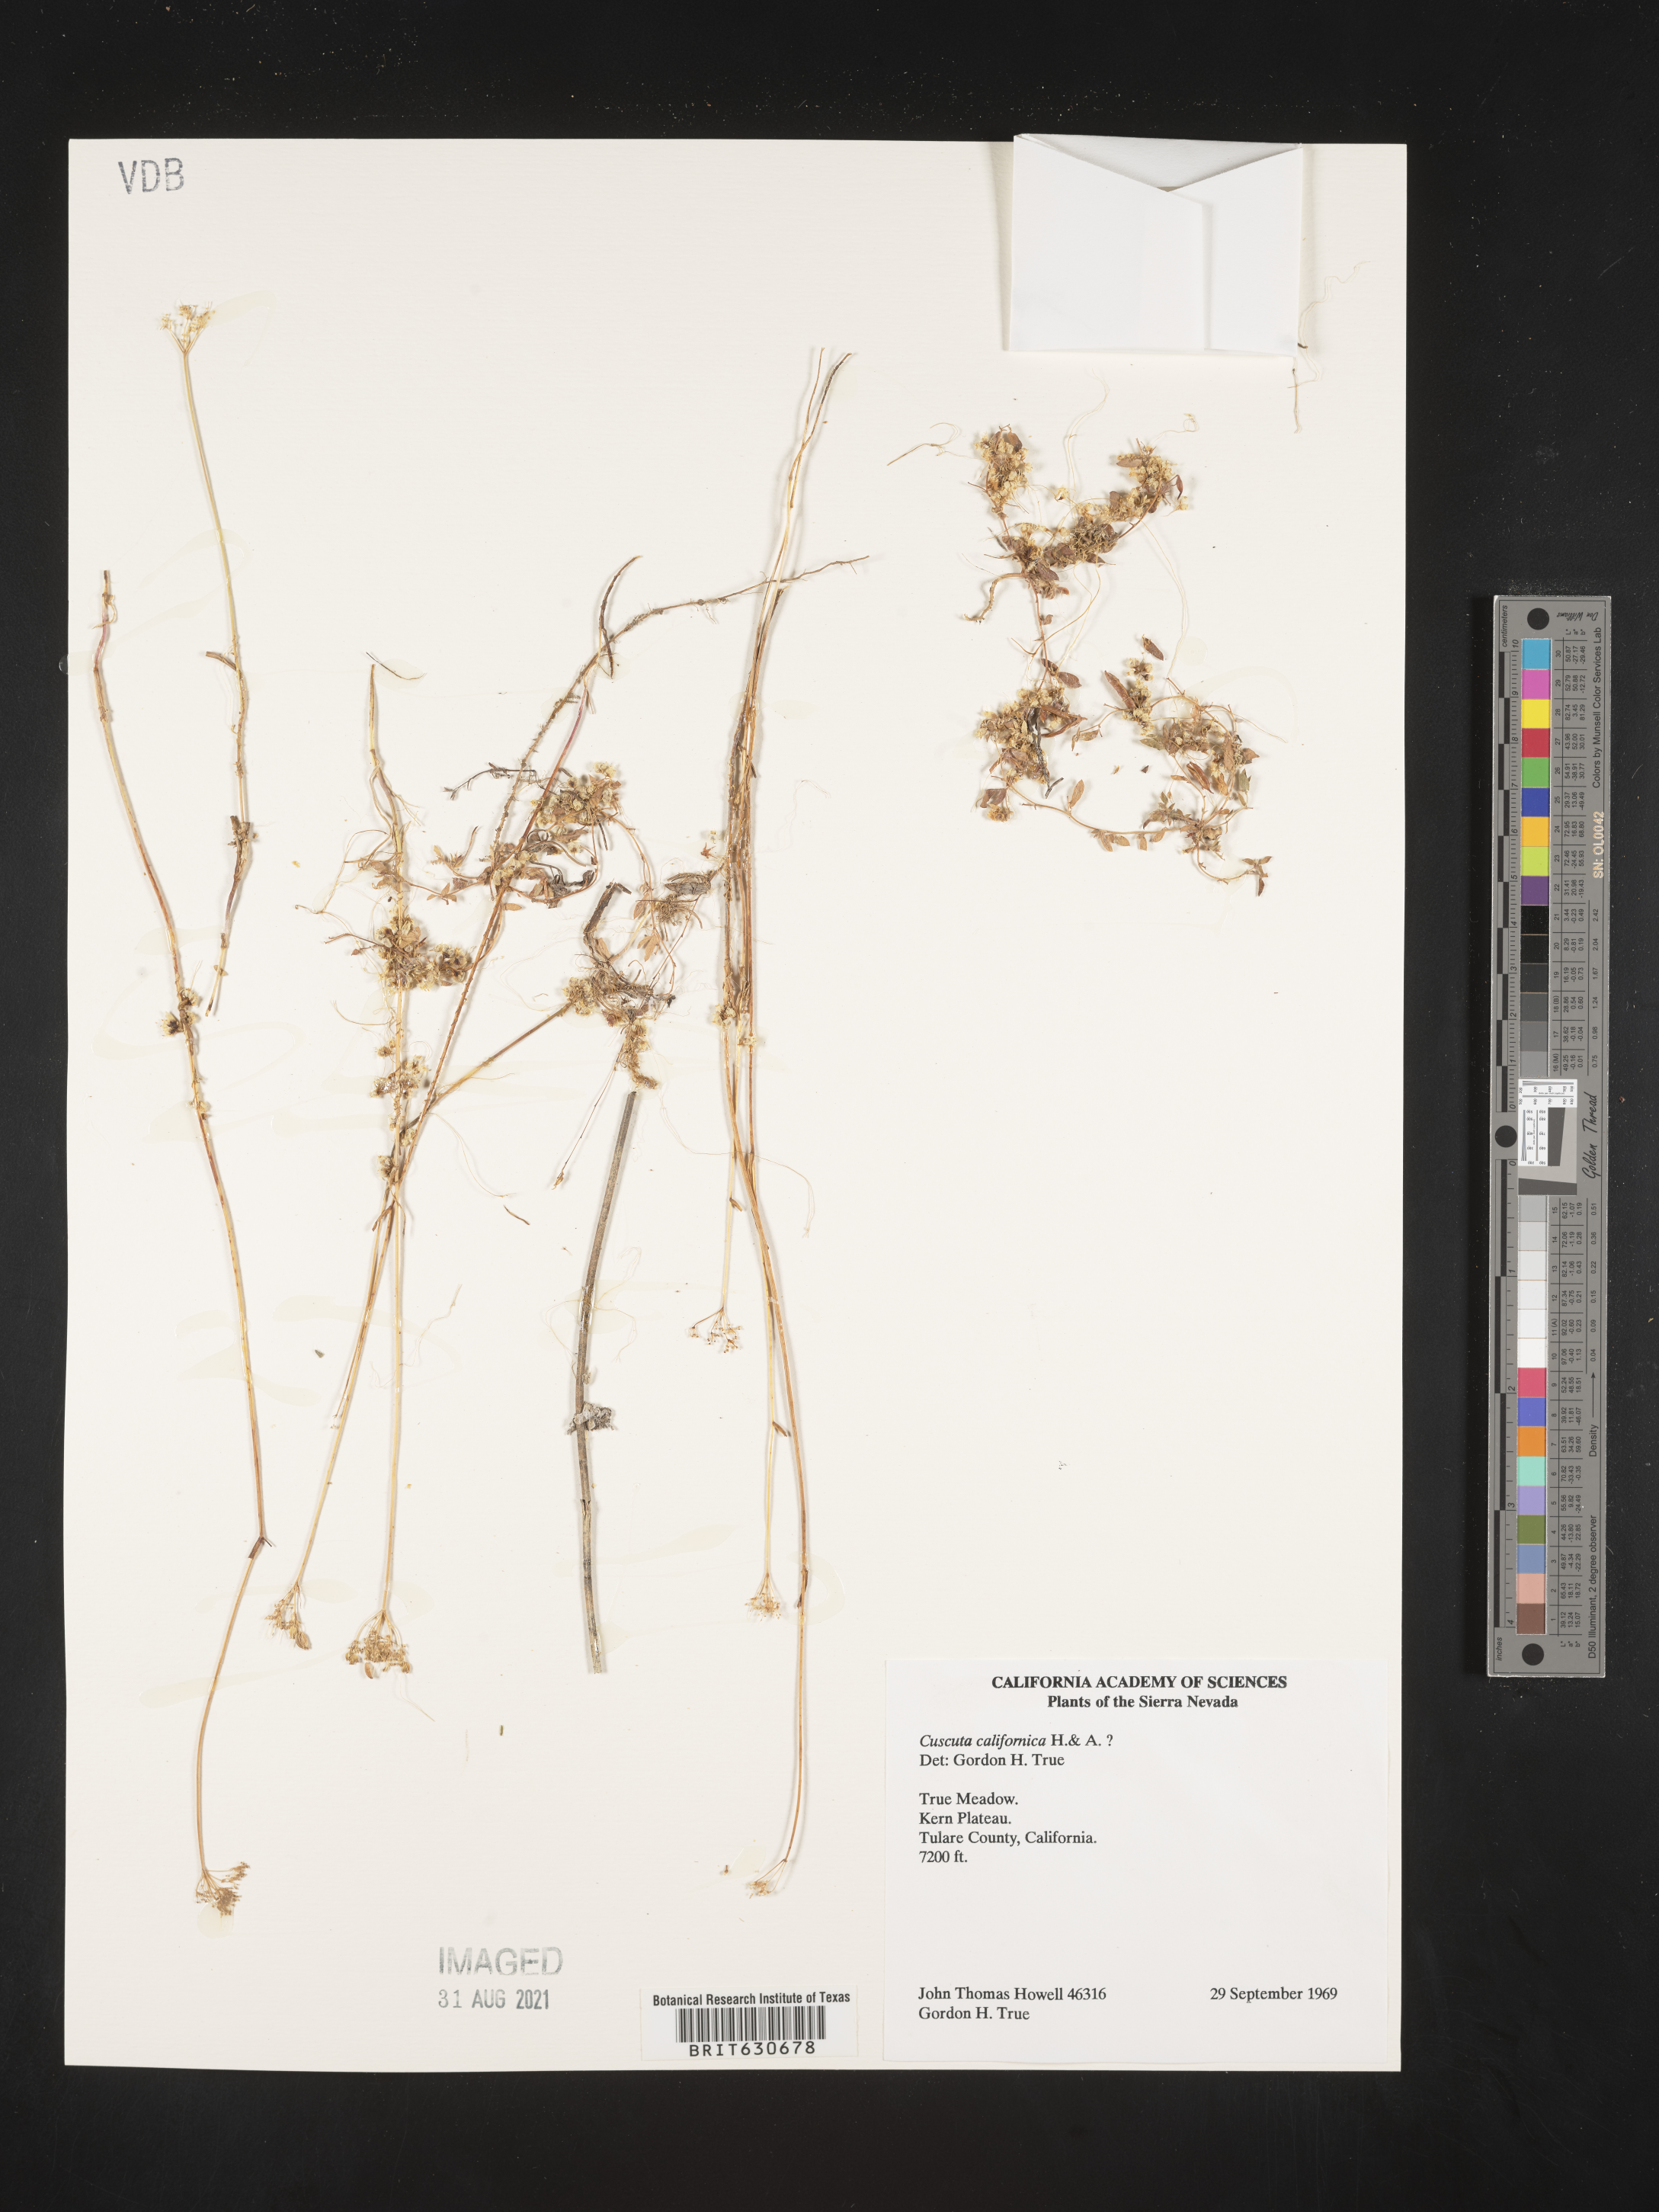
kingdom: Plantae
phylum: Tracheophyta
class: Magnoliopsida
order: Solanales
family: Convolvulaceae
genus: Cuscuta
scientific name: Cuscuta californica
